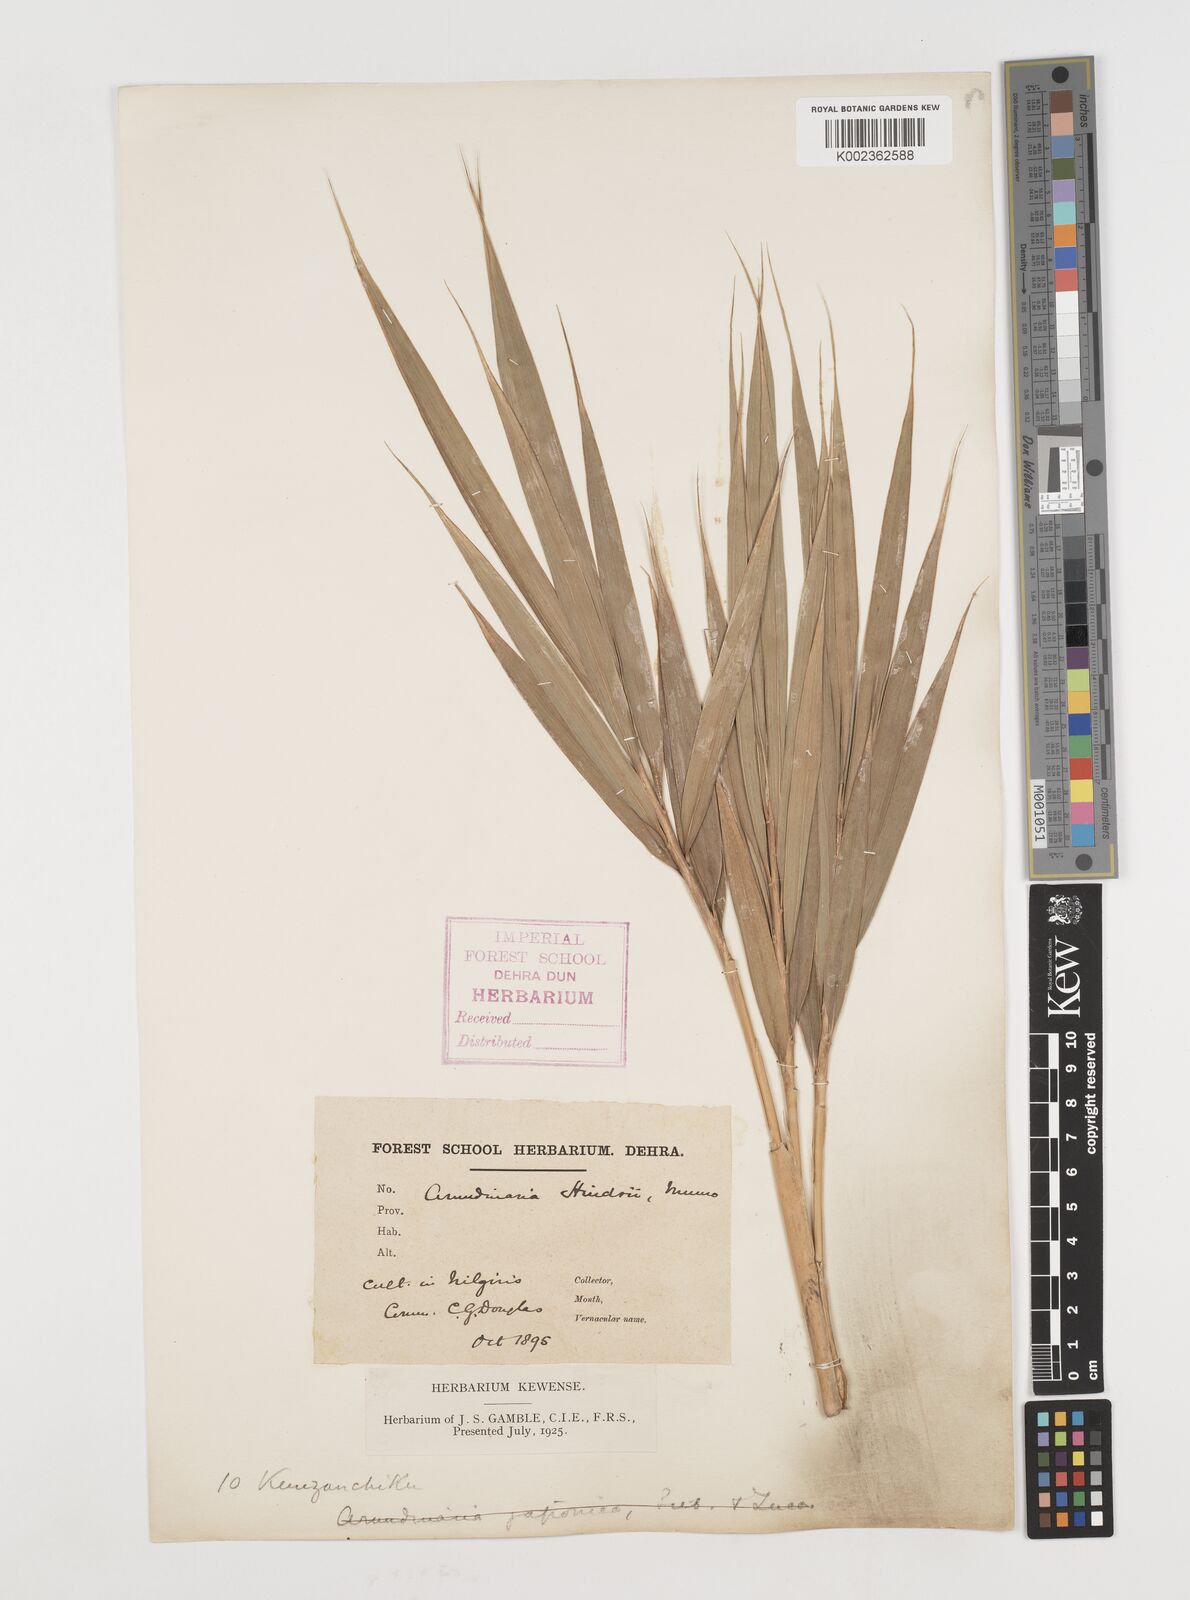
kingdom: Plantae
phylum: Tracheophyta
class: Liliopsida
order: Poales
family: Poaceae
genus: Pseudosasa
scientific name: Pseudosasa hindsii
